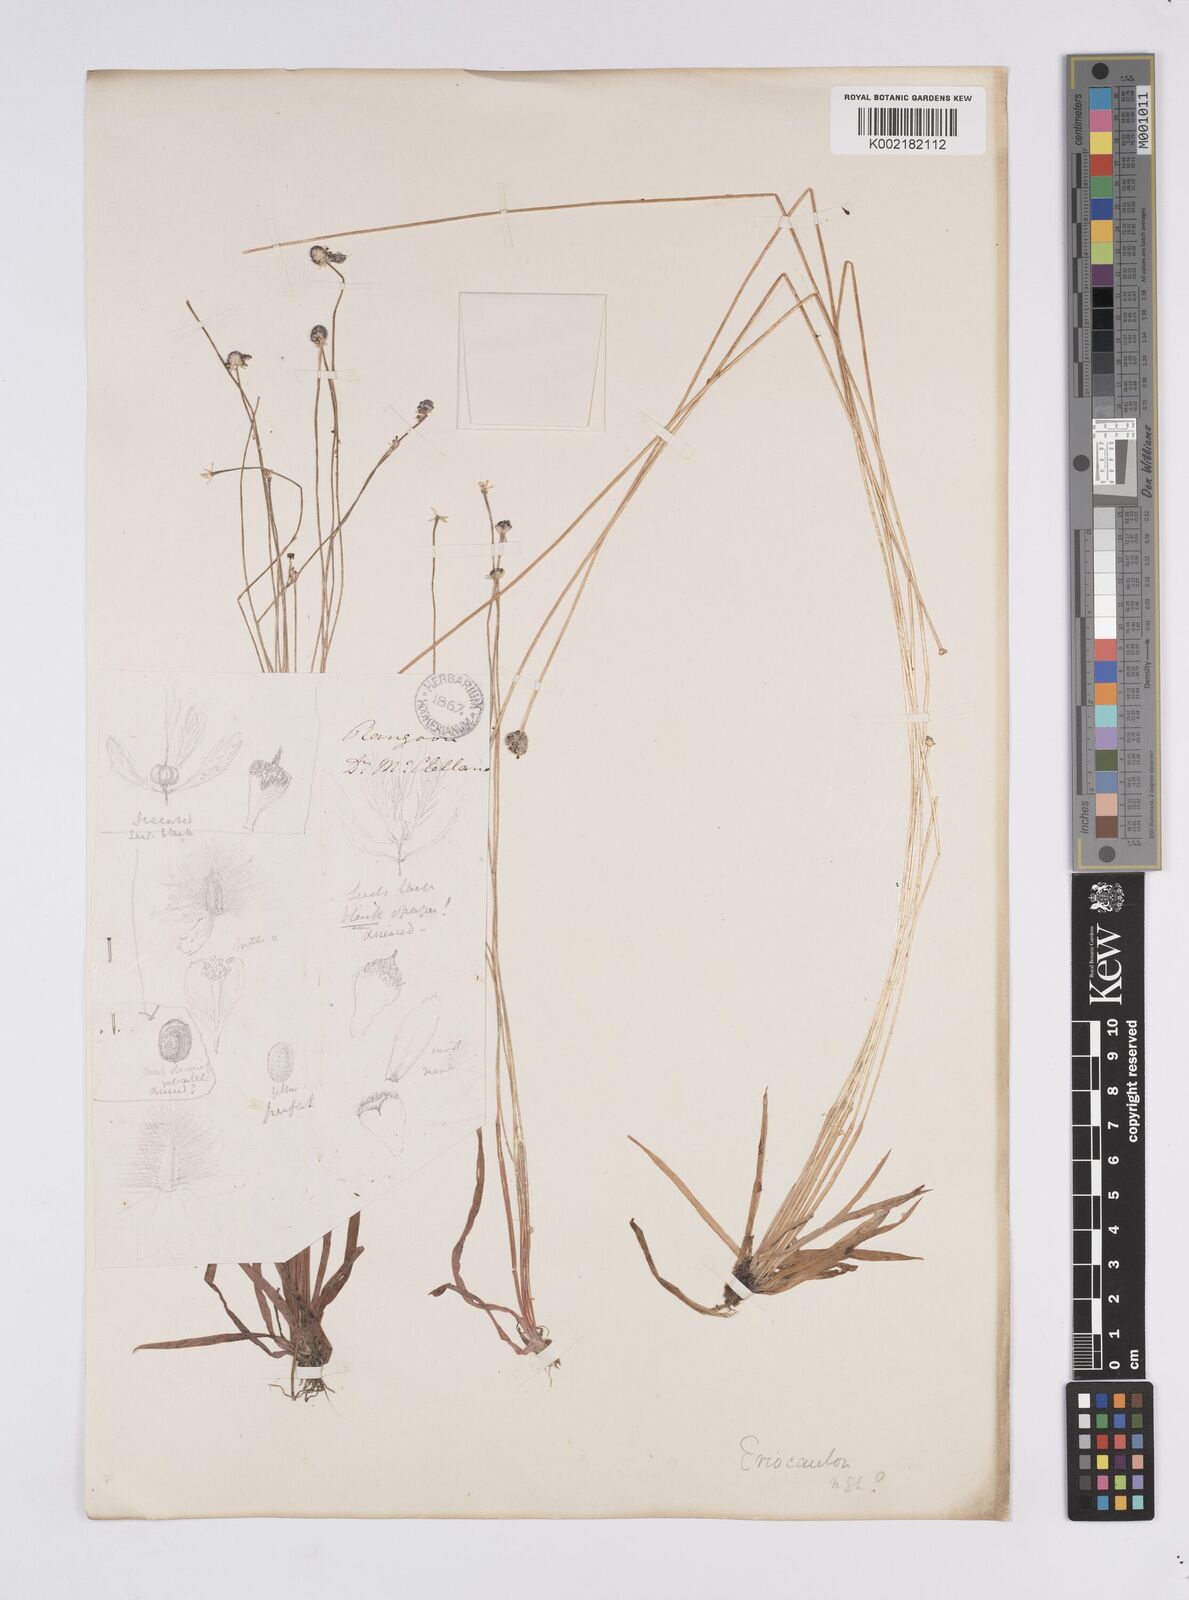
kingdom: Plantae
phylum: Tracheophyta
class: Liliopsida
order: Poales
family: Eriocaulaceae
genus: Eriocaulon
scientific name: Eriocaulon
